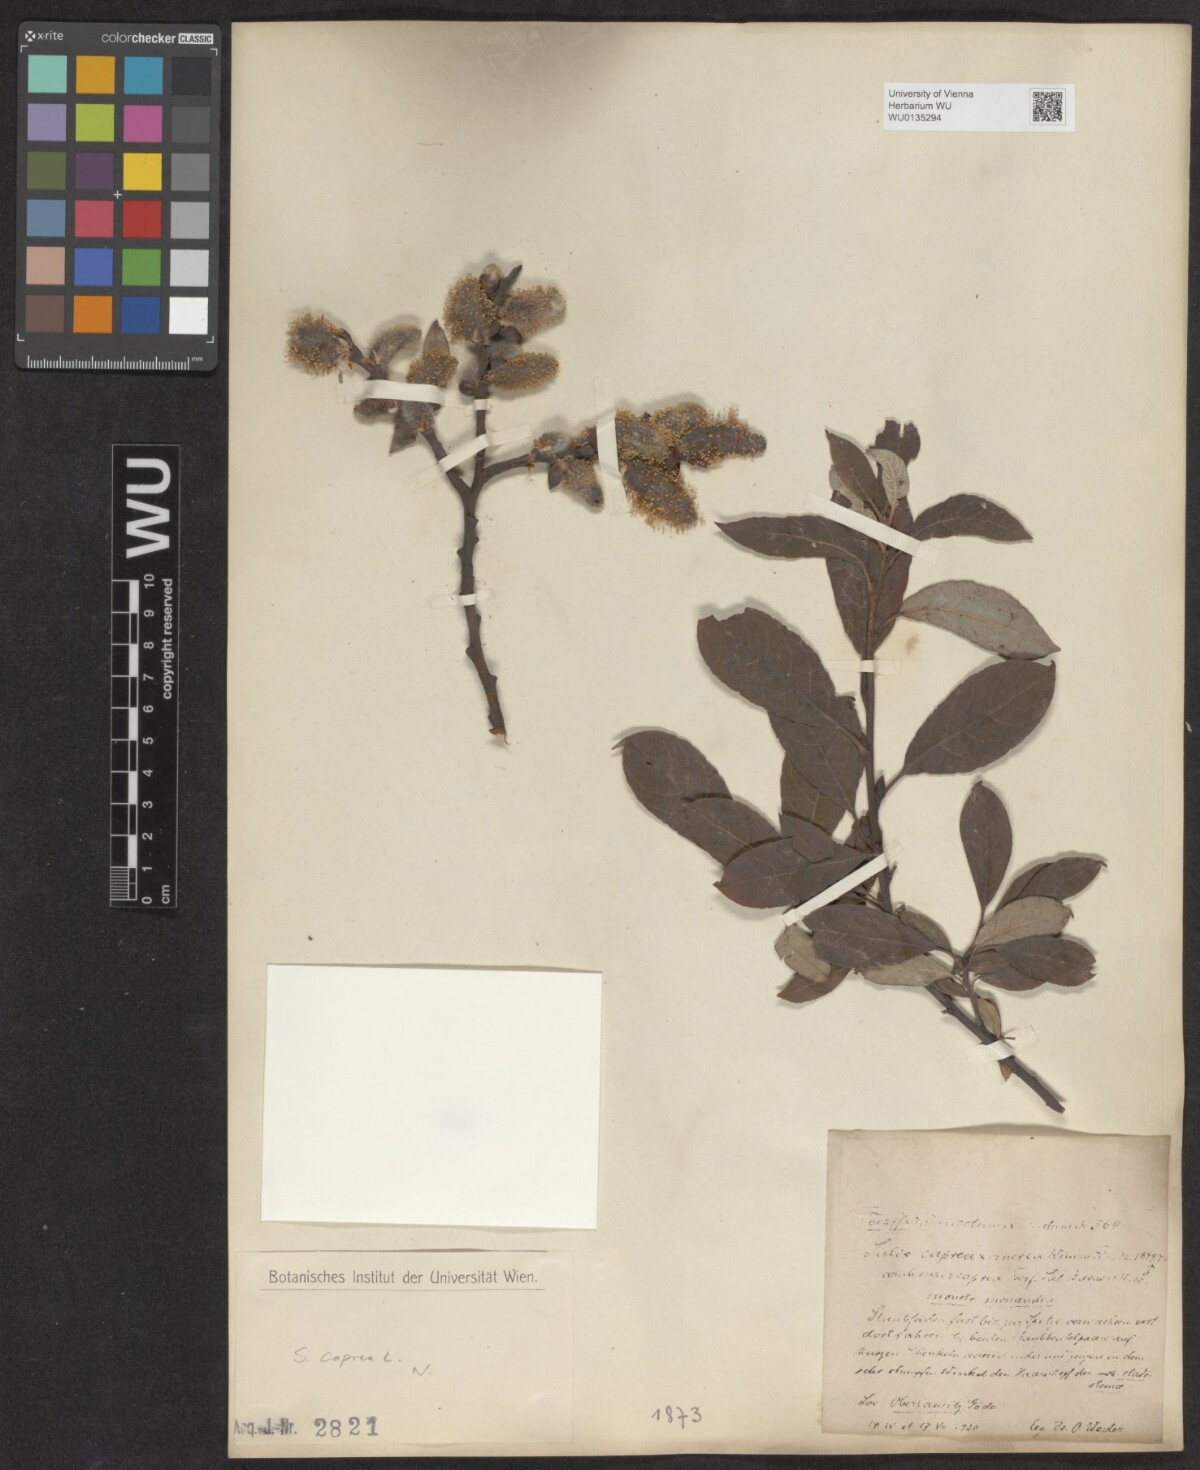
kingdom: Plantae
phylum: Tracheophyta
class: Magnoliopsida
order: Malpighiales
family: Salicaceae
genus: Salix
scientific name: Salix caprea
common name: Goat willow
